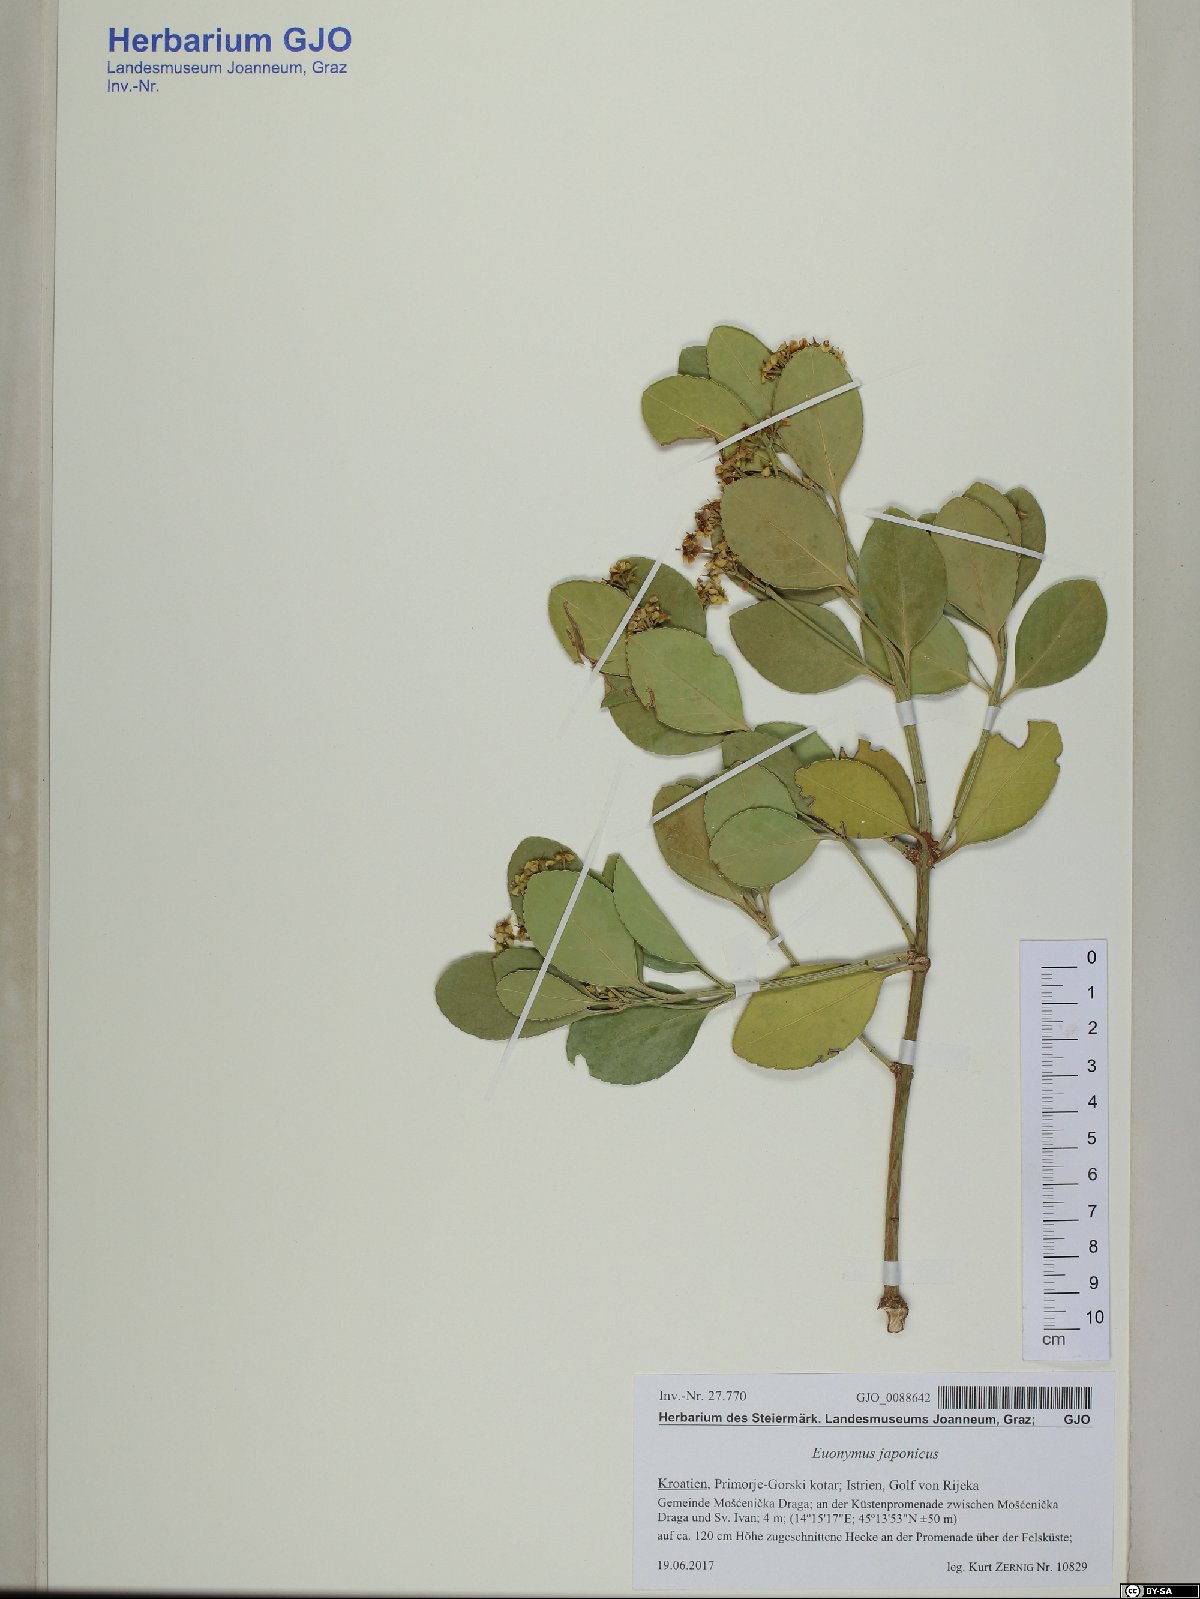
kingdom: Plantae
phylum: Tracheophyta
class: Magnoliopsida
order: Celastrales
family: Celastraceae
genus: Euonymus
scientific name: Euonymus fortunei
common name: Climbing euonymus
